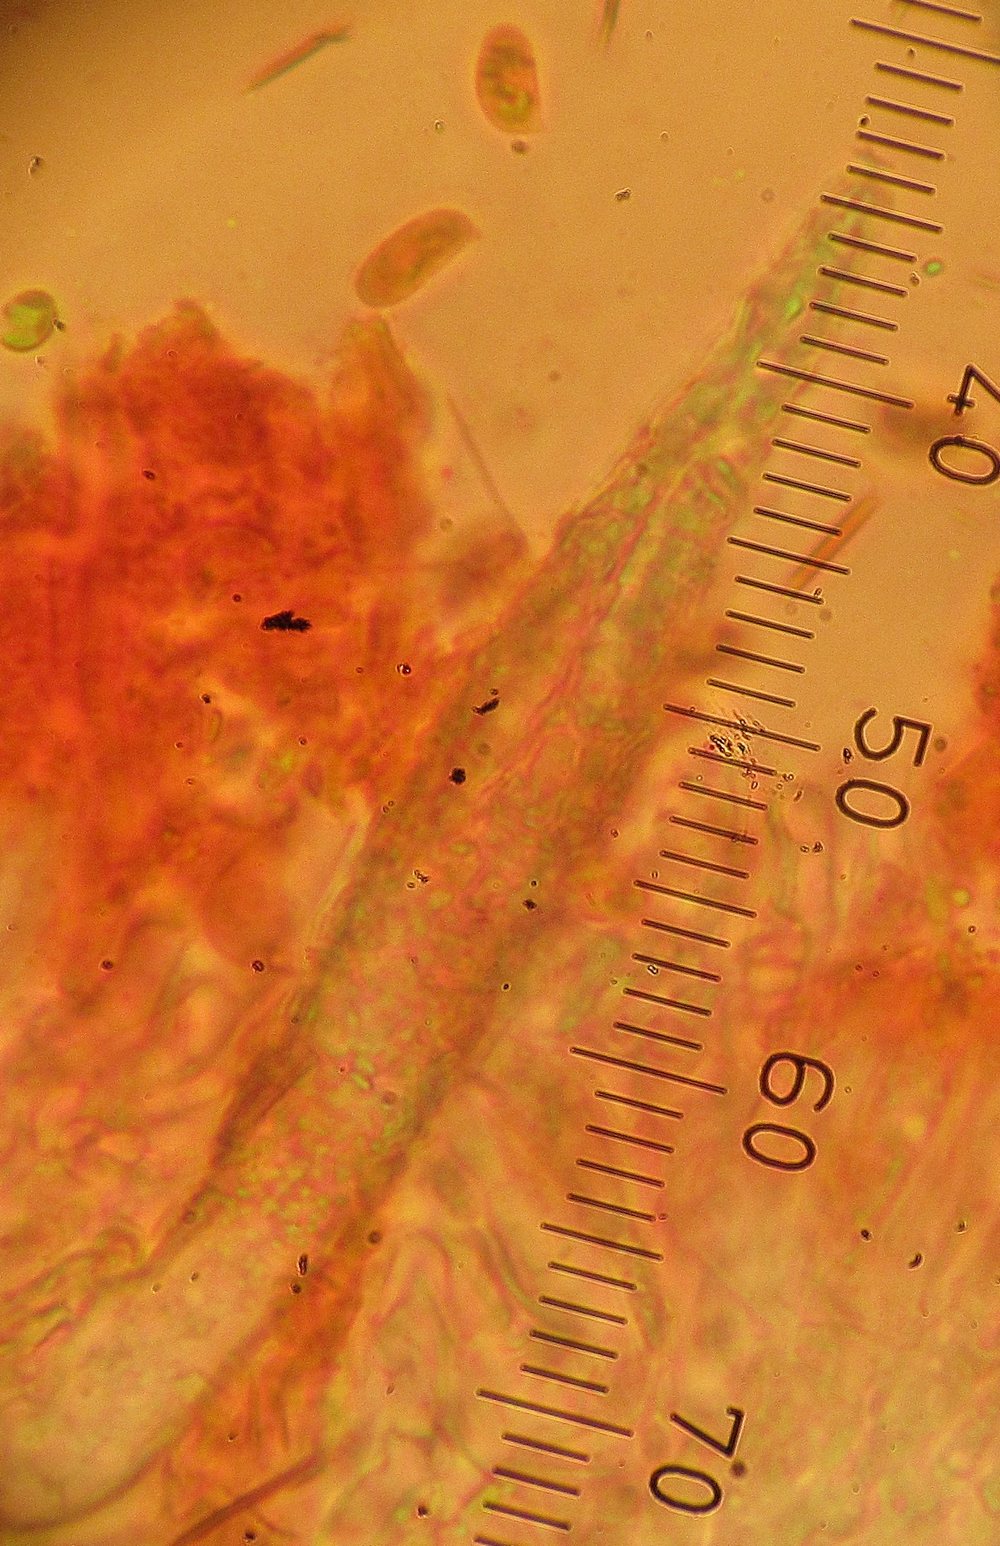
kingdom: Fungi
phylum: Basidiomycota
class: Agaricomycetes
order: Hymenochaetales
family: Rickenellaceae
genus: Peniophorella
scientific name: Peniophorella pubera
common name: dunet kalkskind
